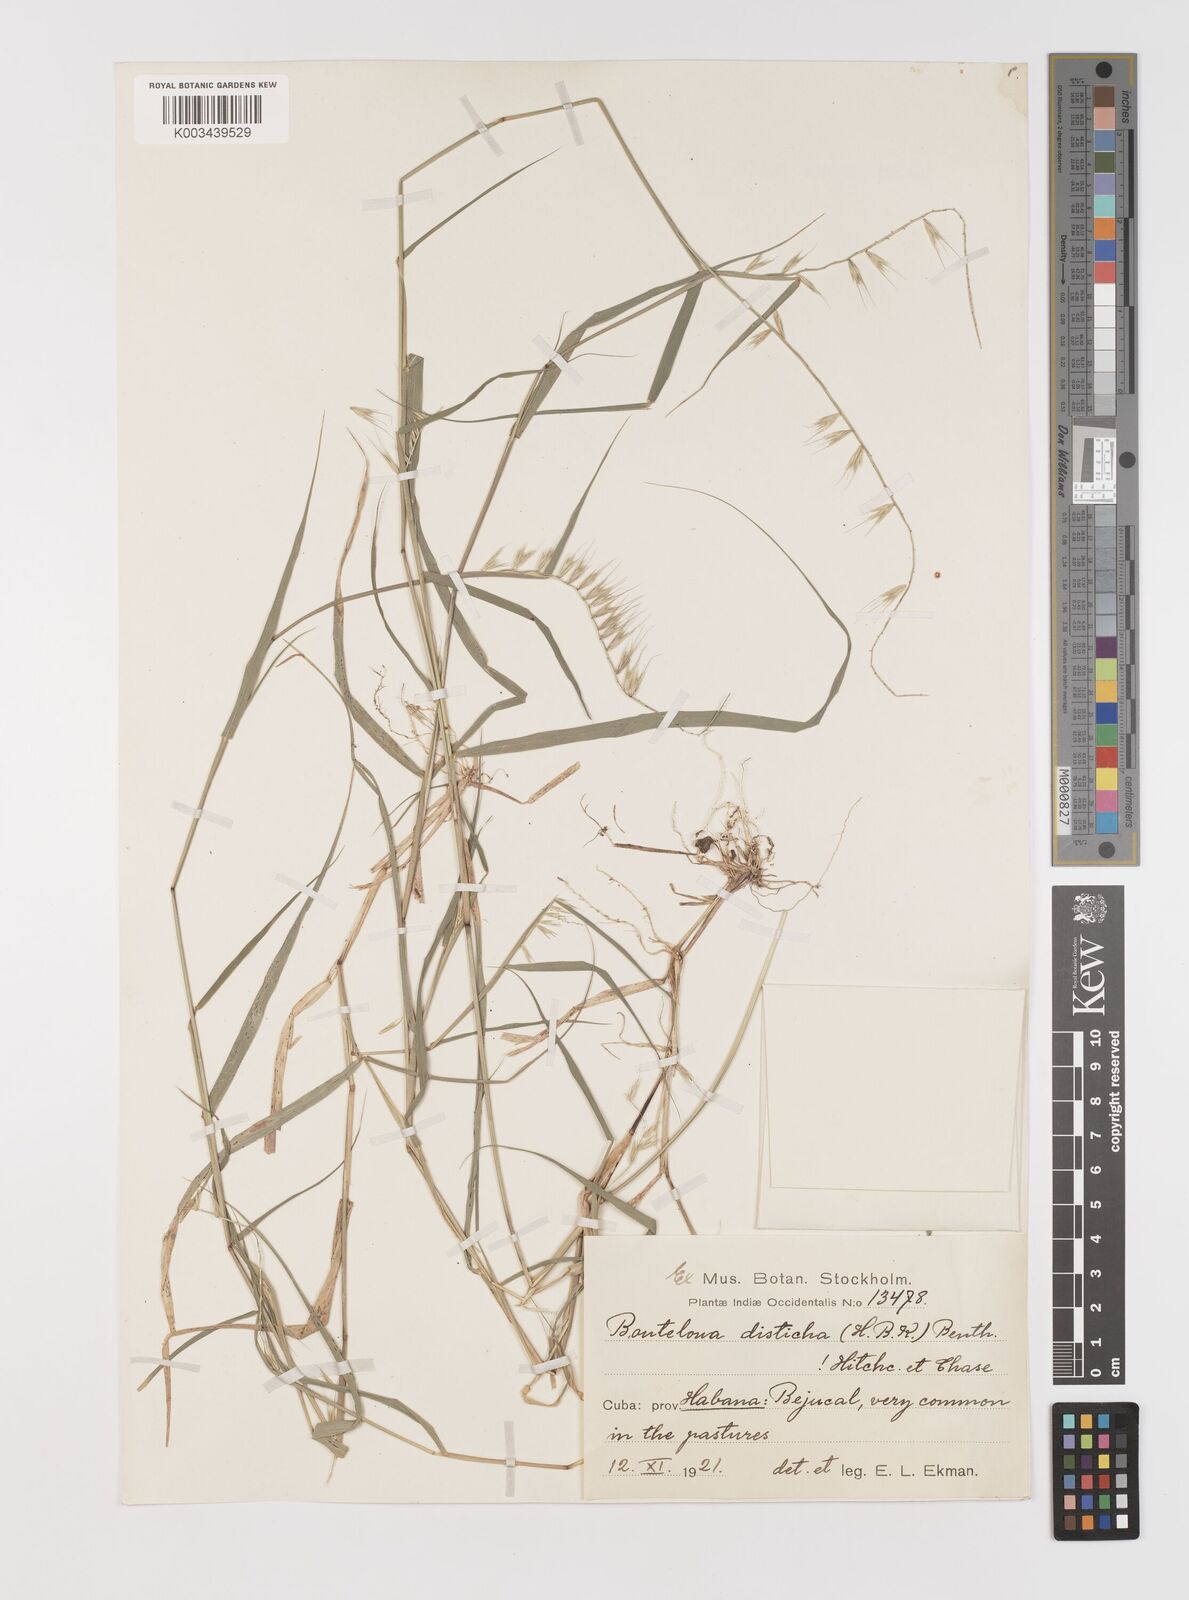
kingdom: Plantae
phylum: Tracheophyta
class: Liliopsida
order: Poales
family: Poaceae
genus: Bouteloua
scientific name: Bouteloua disticha
